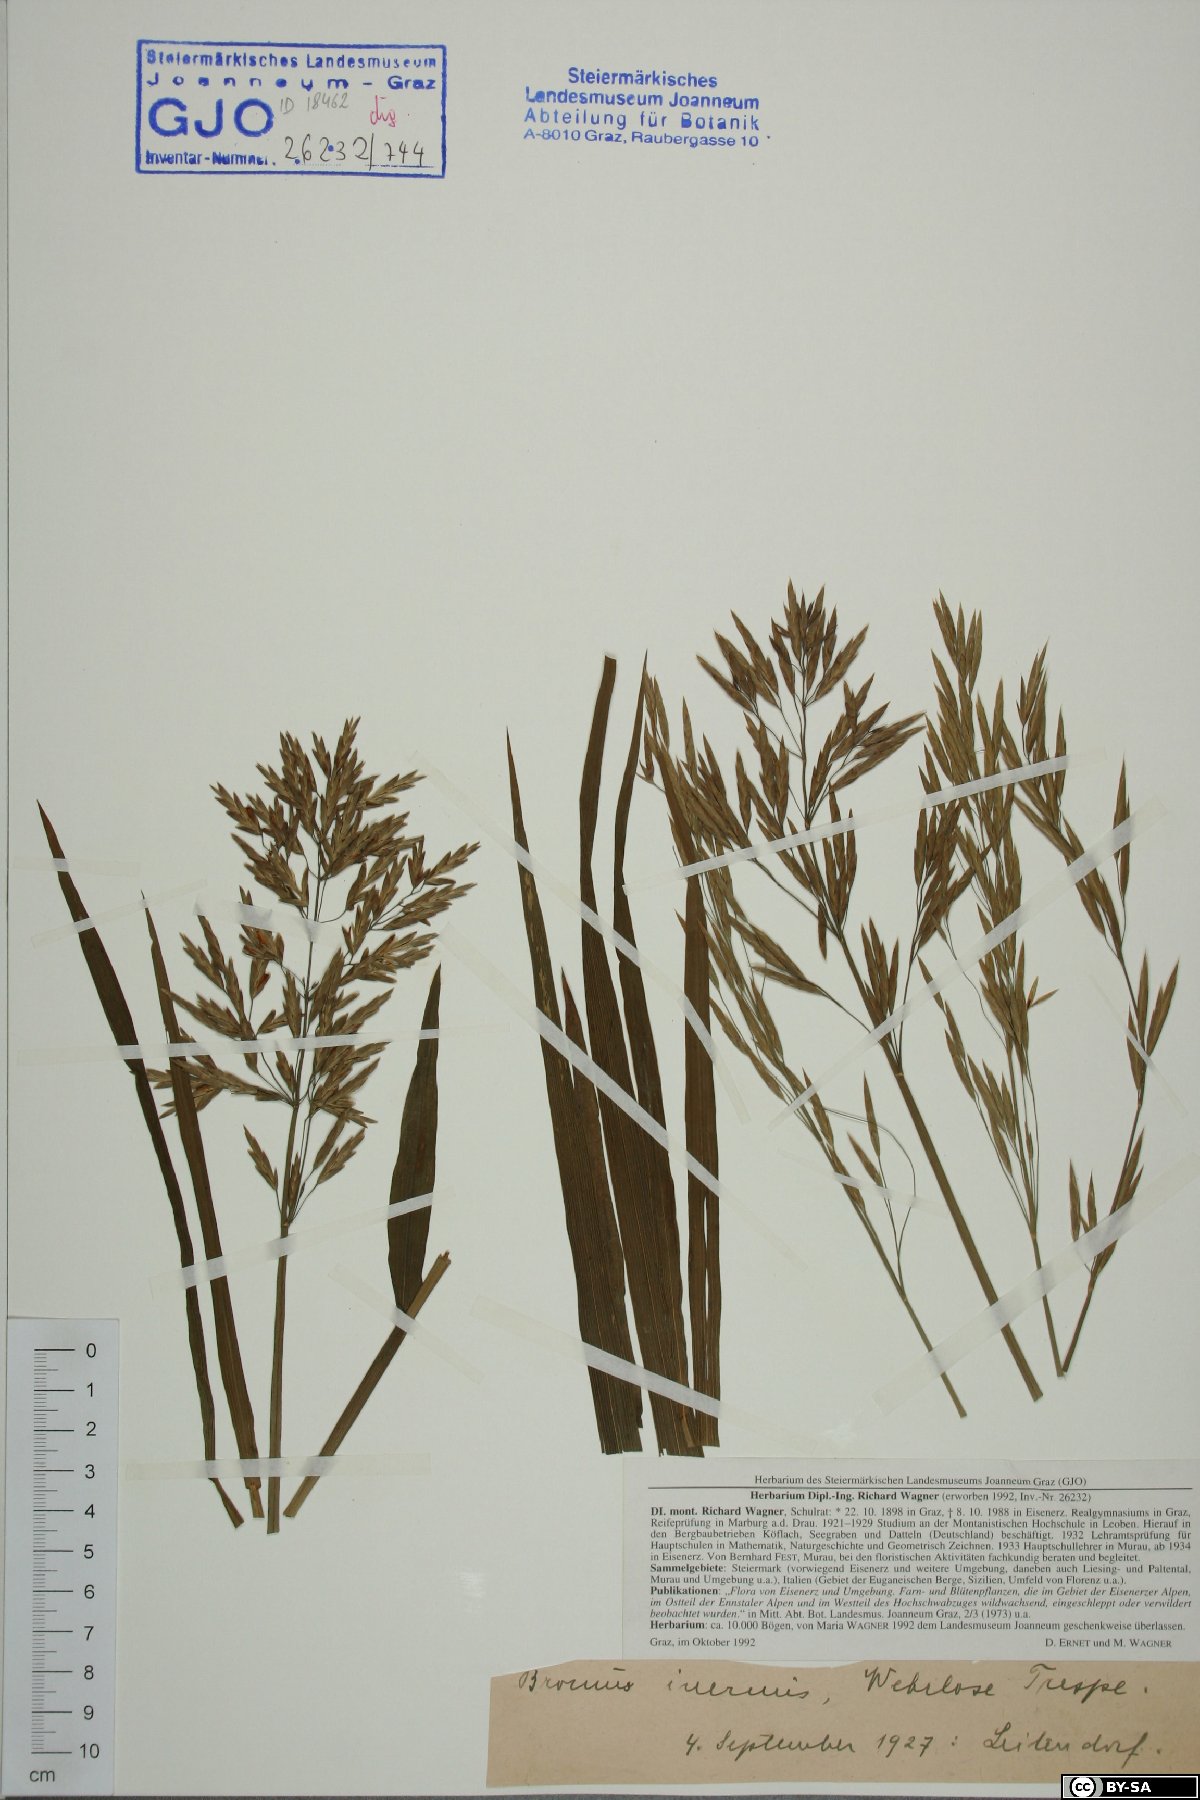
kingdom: Plantae
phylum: Tracheophyta
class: Liliopsida
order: Poales
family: Poaceae
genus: Bromus
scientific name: Bromus inermis
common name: Smooth brome
